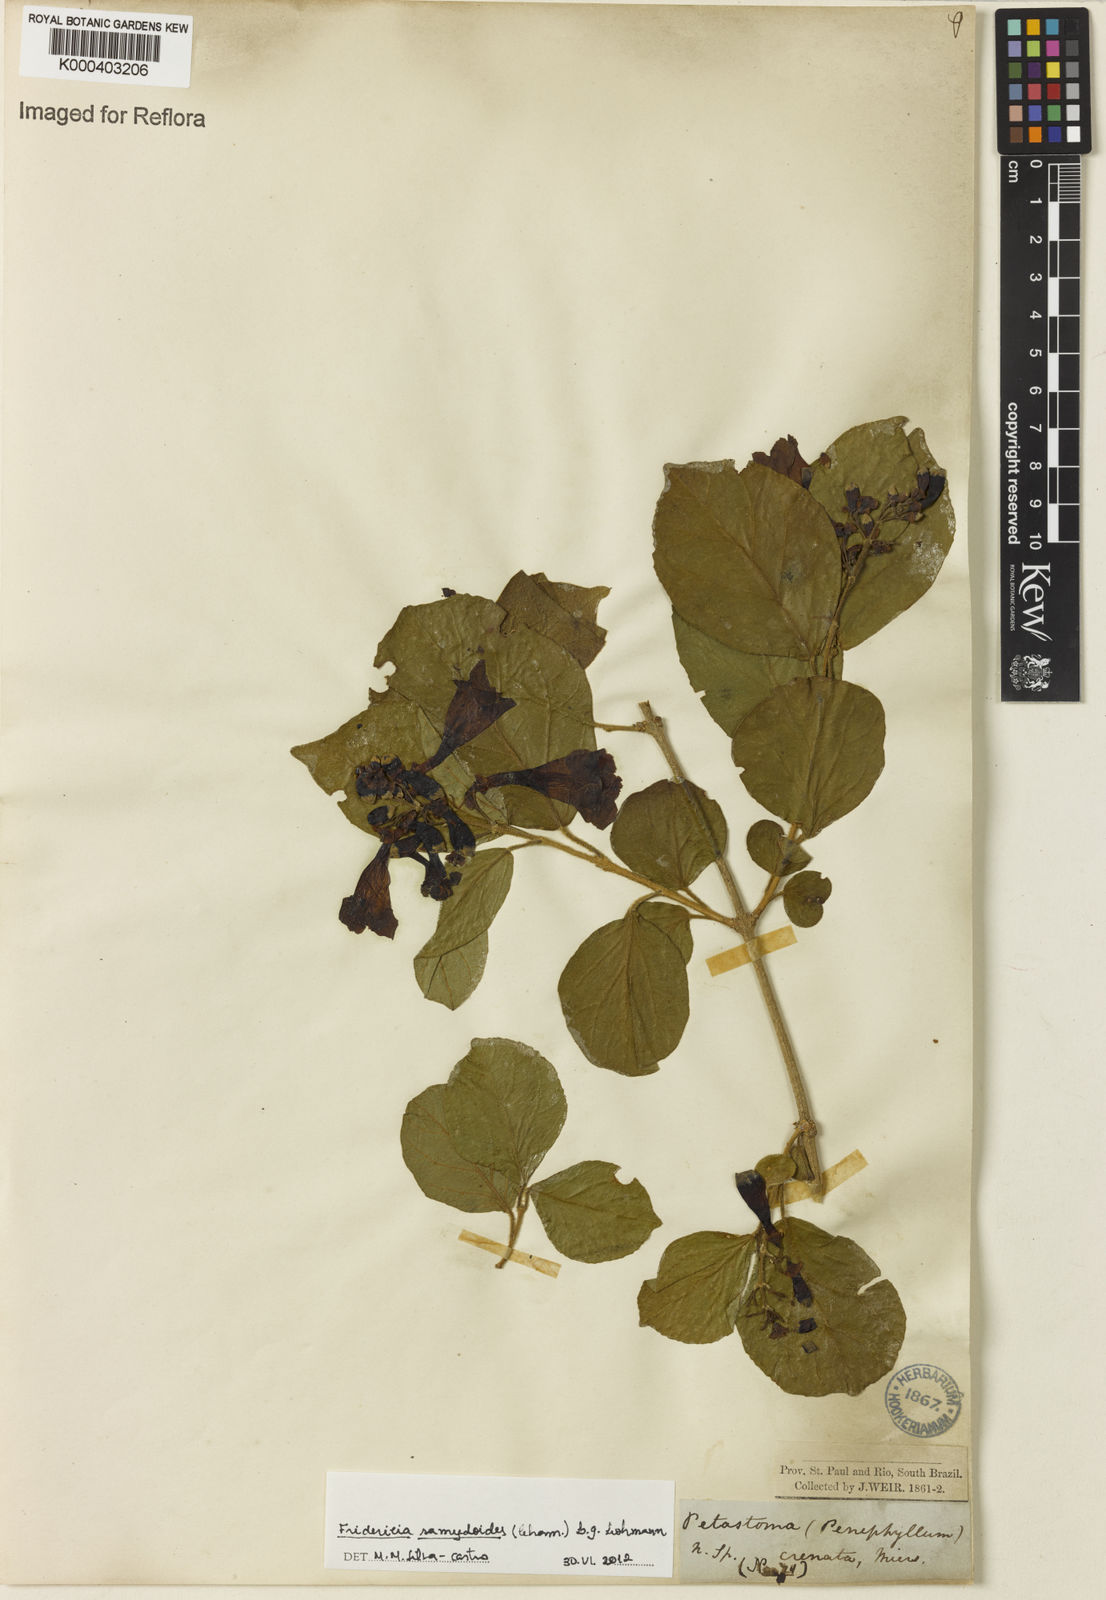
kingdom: Plantae
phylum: Tracheophyta
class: Magnoliopsida
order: Lamiales
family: Bignoniaceae
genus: Fridericia
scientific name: Fridericia samydoides
